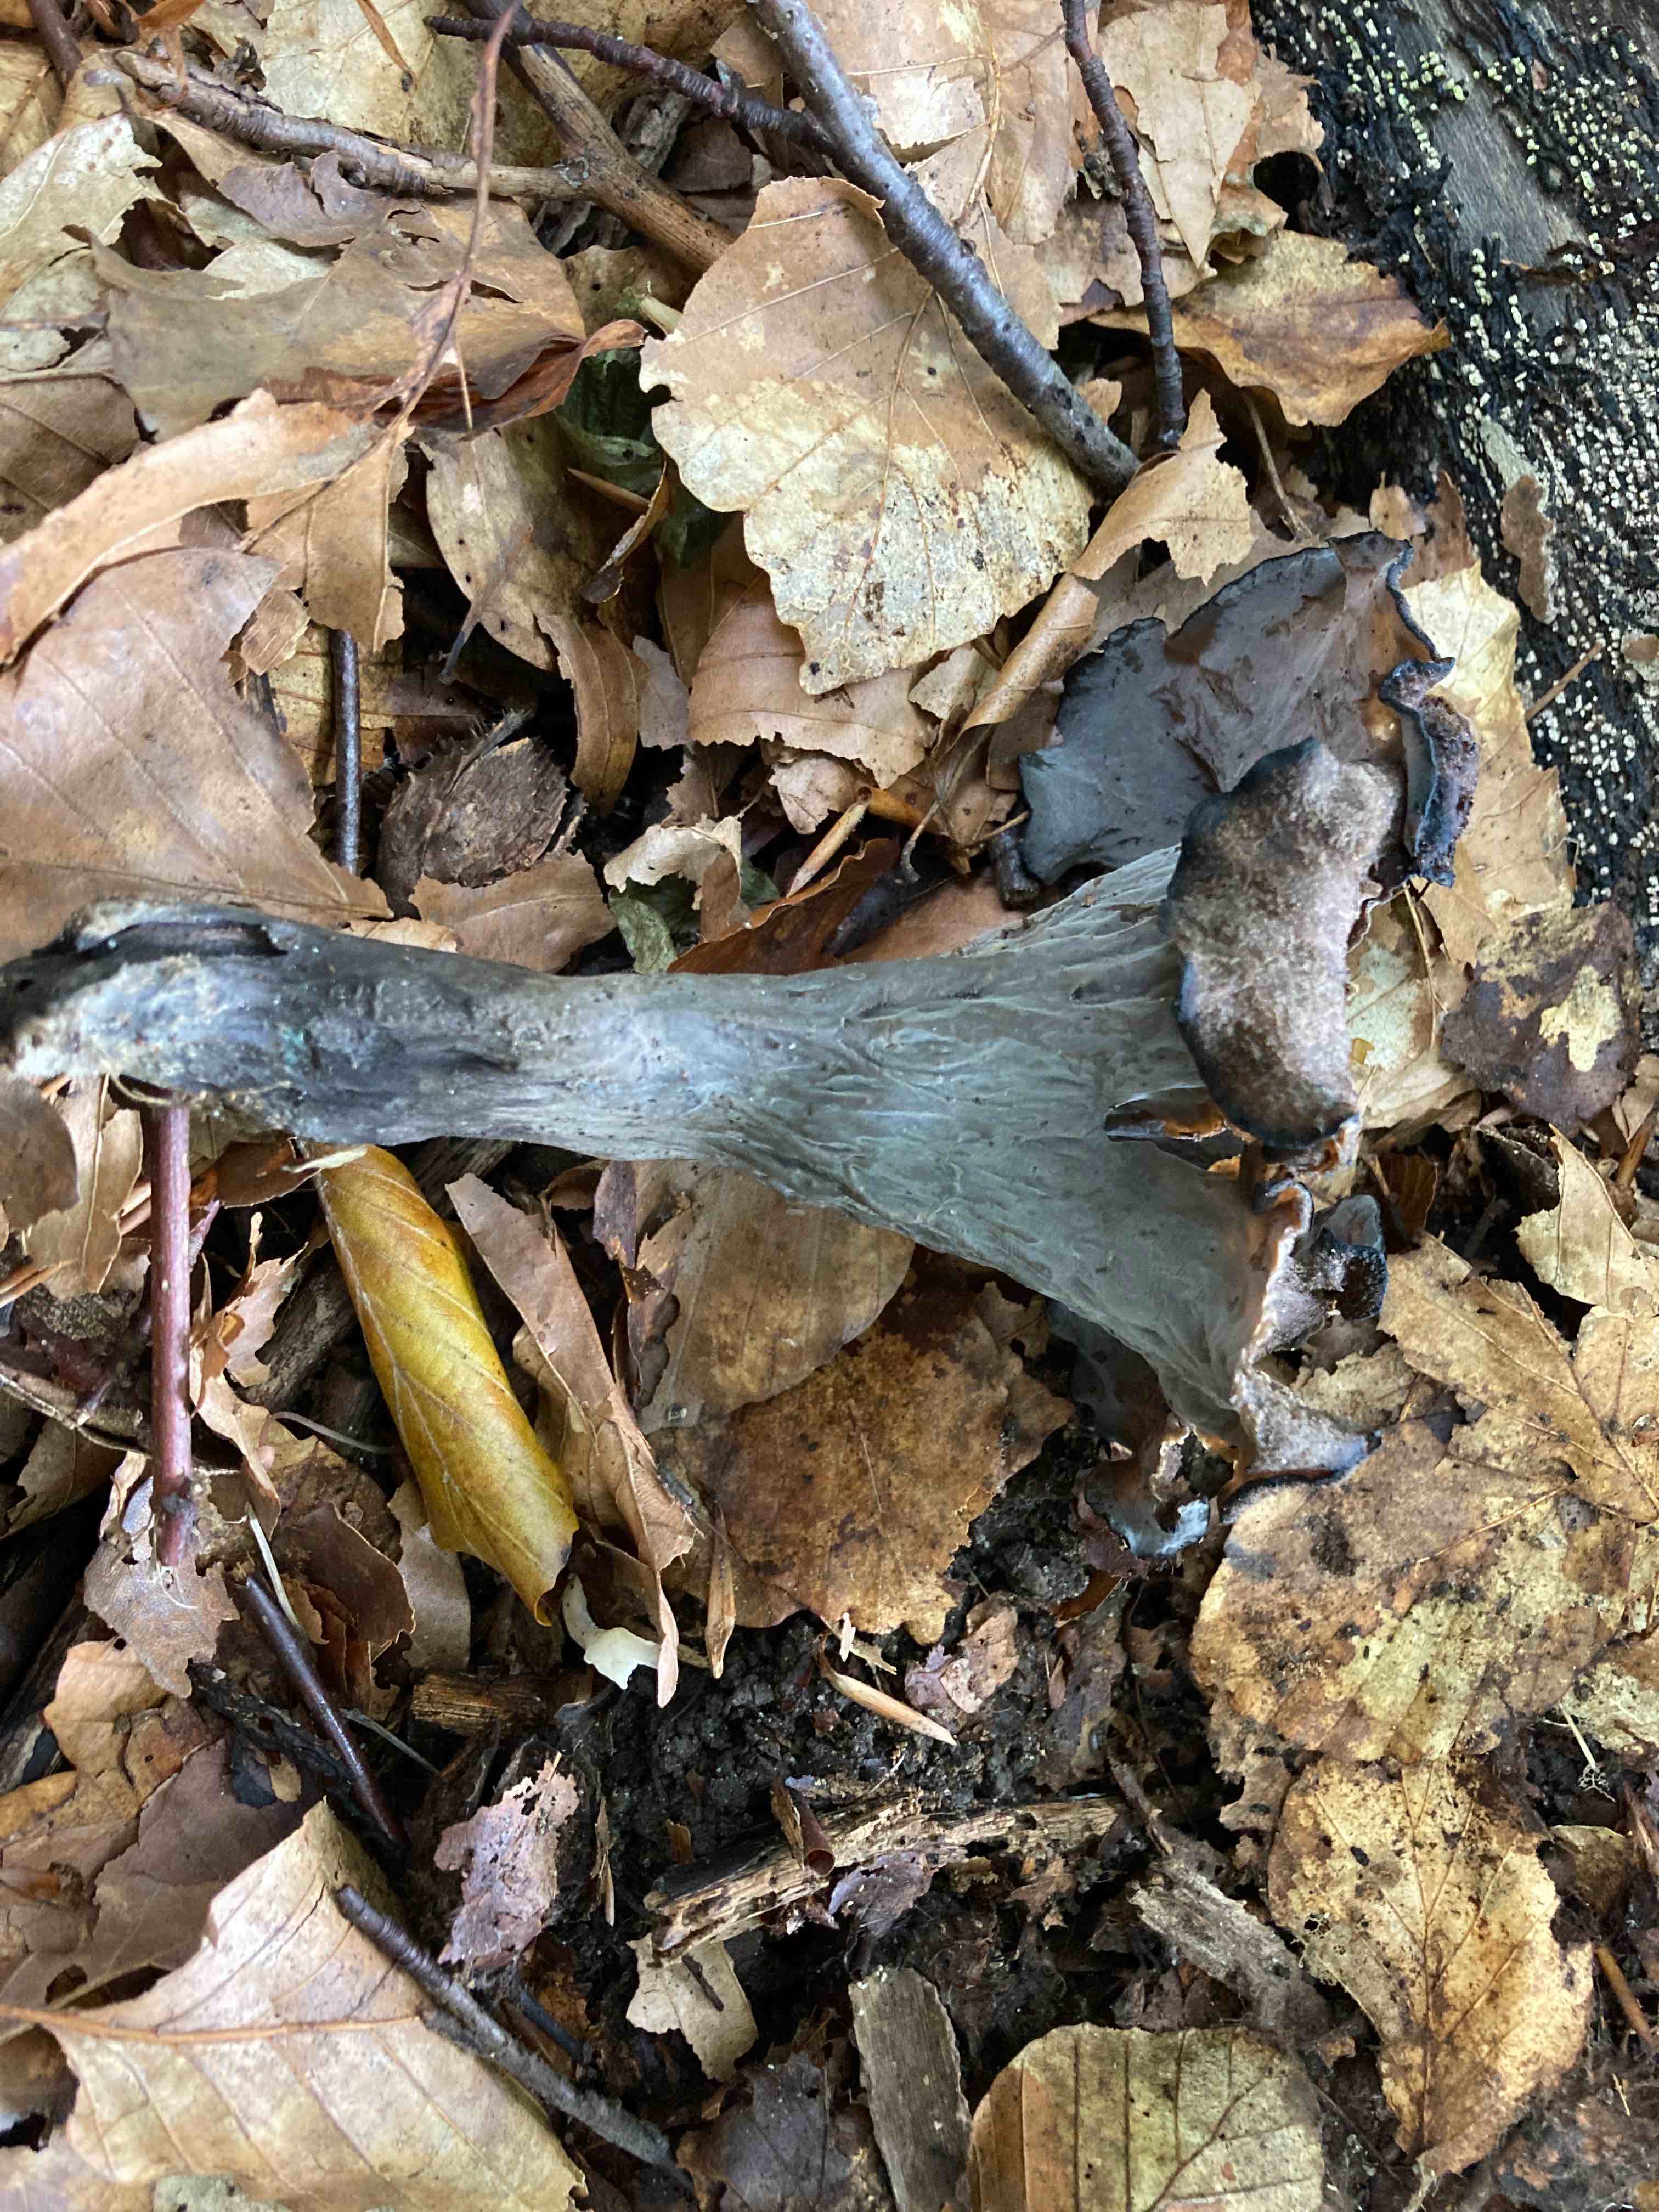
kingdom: Fungi
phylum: Basidiomycota
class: Agaricomycetes
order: Cantharellales
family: Hydnaceae
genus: Craterellus
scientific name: Craterellus cornucopioides
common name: trompetsvamp
